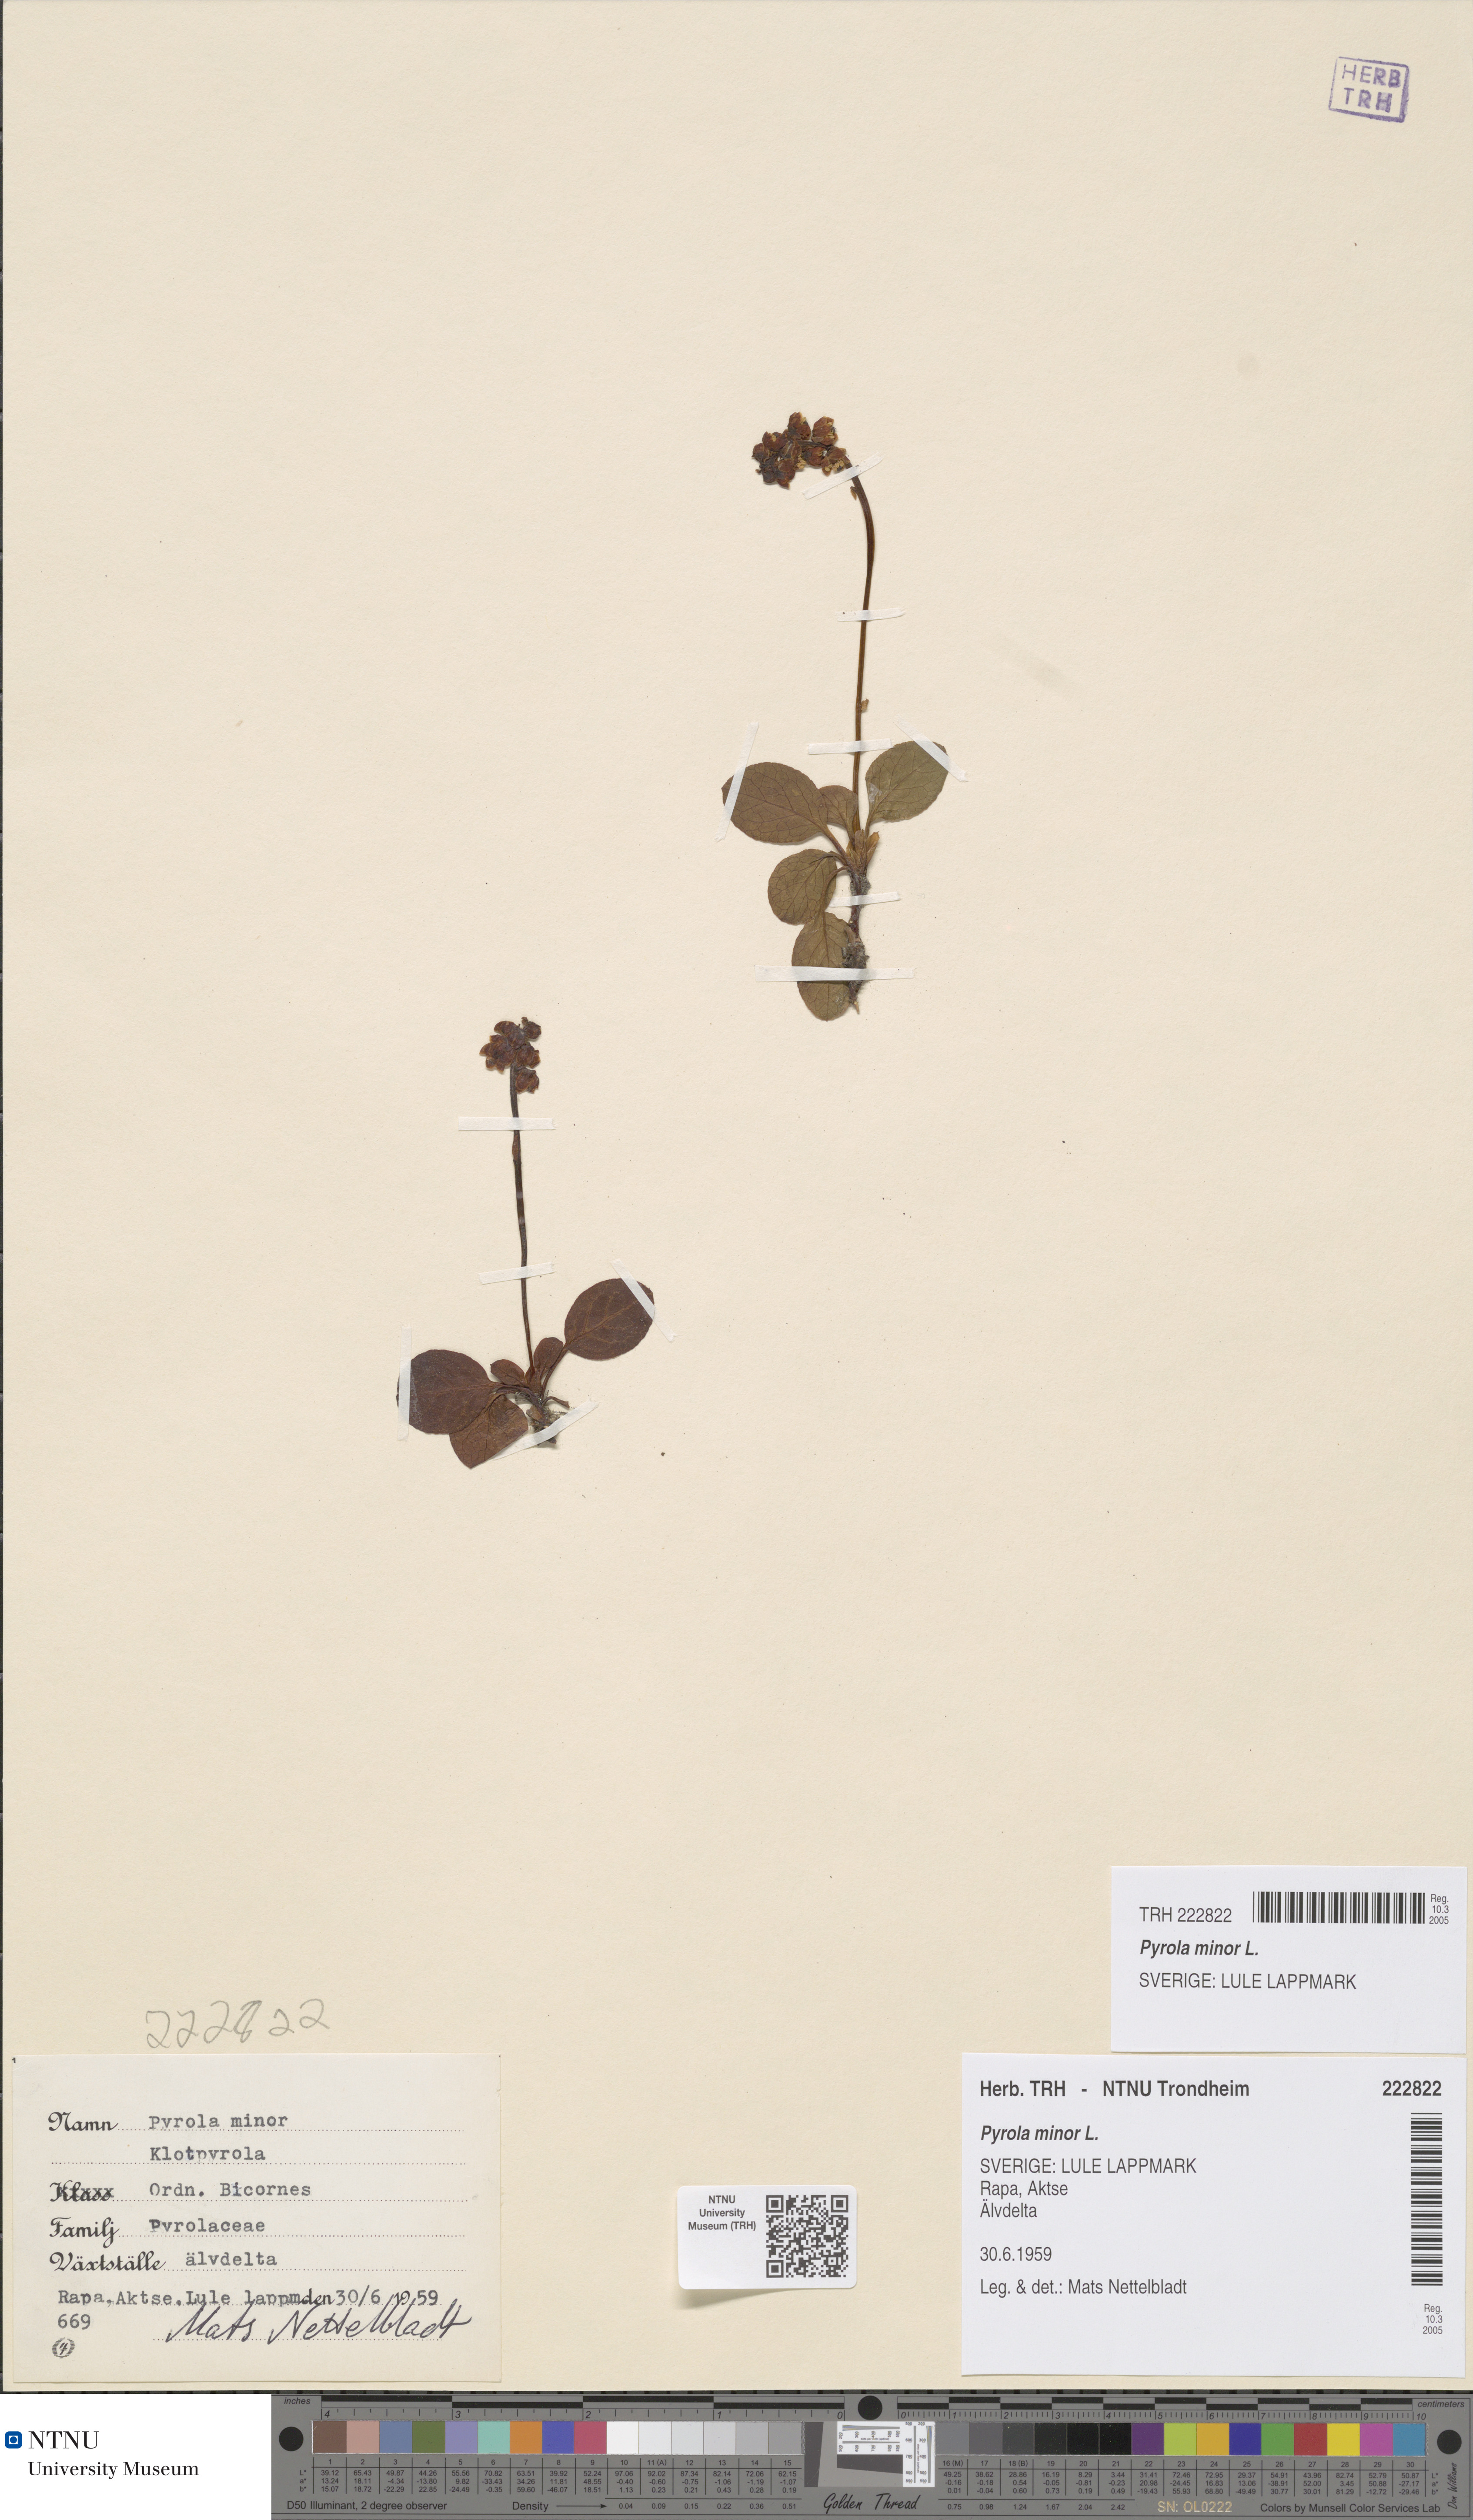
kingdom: Plantae
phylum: Tracheophyta
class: Magnoliopsida
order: Ericales
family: Ericaceae
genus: Pyrola
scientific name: Pyrola minor
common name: Common wintergreen
